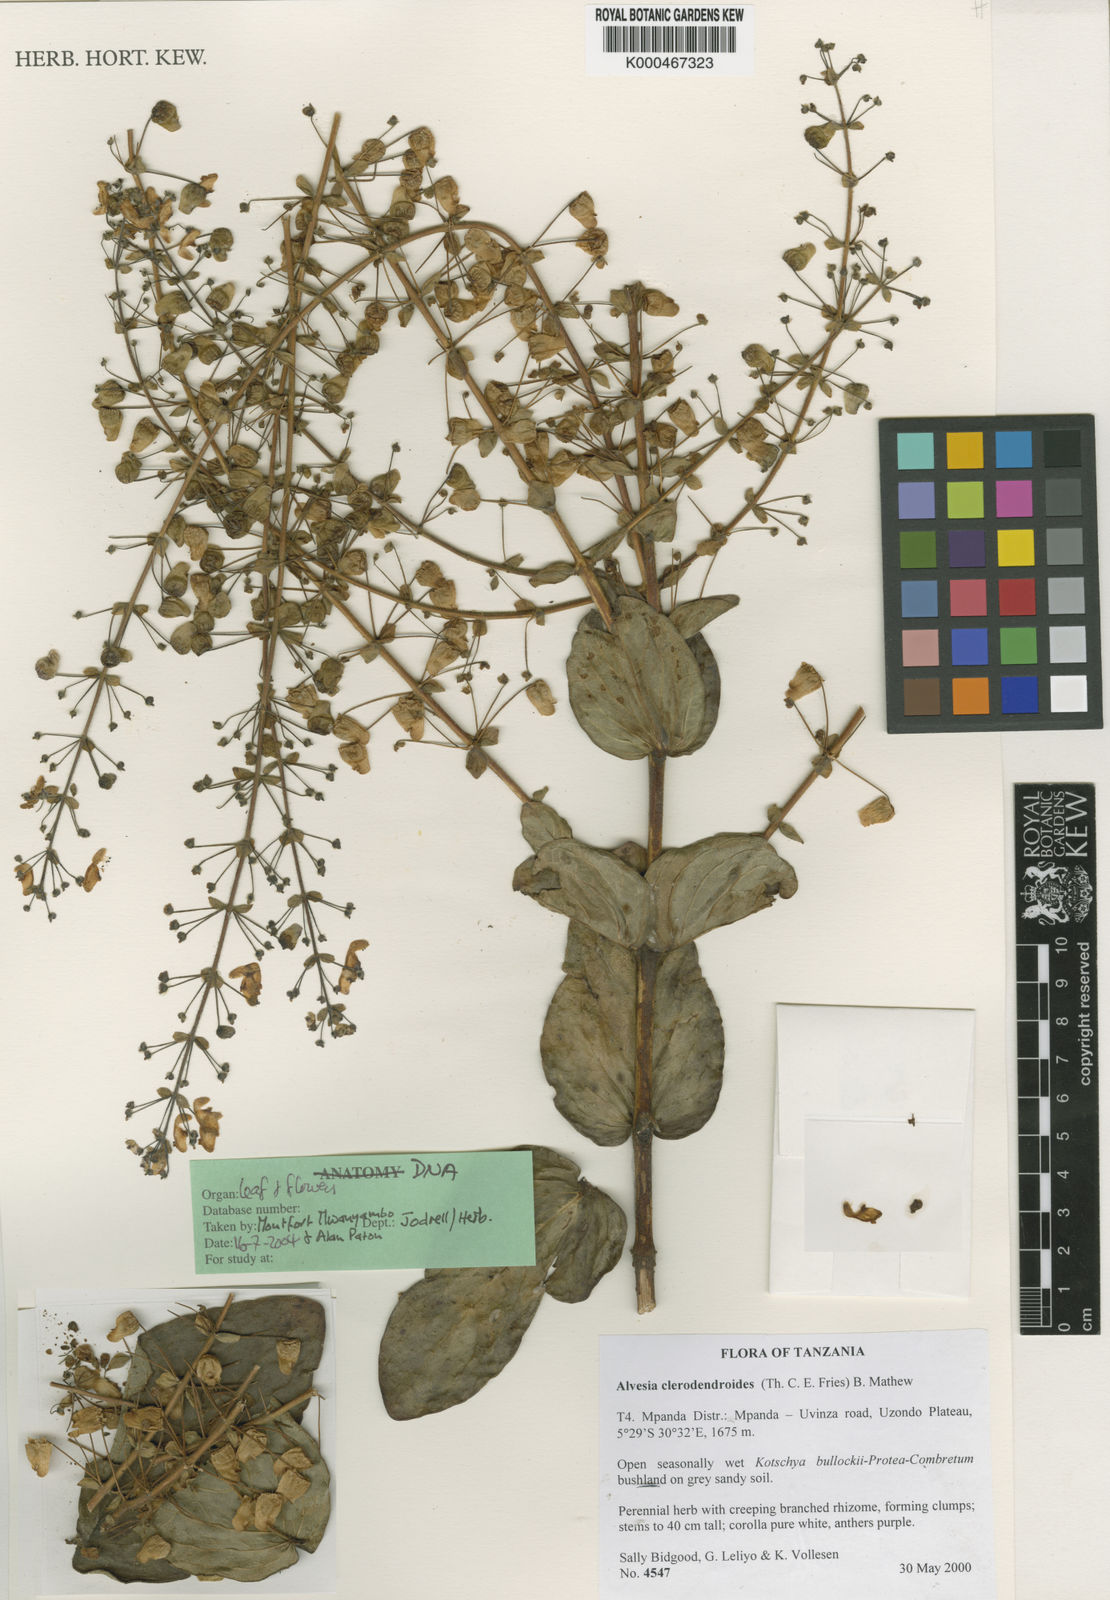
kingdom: Plantae
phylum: Tracheophyta
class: Magnoliopsida
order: Lamiales
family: Lamiaceae
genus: Alvesia
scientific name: Alvesia clerodendroides
